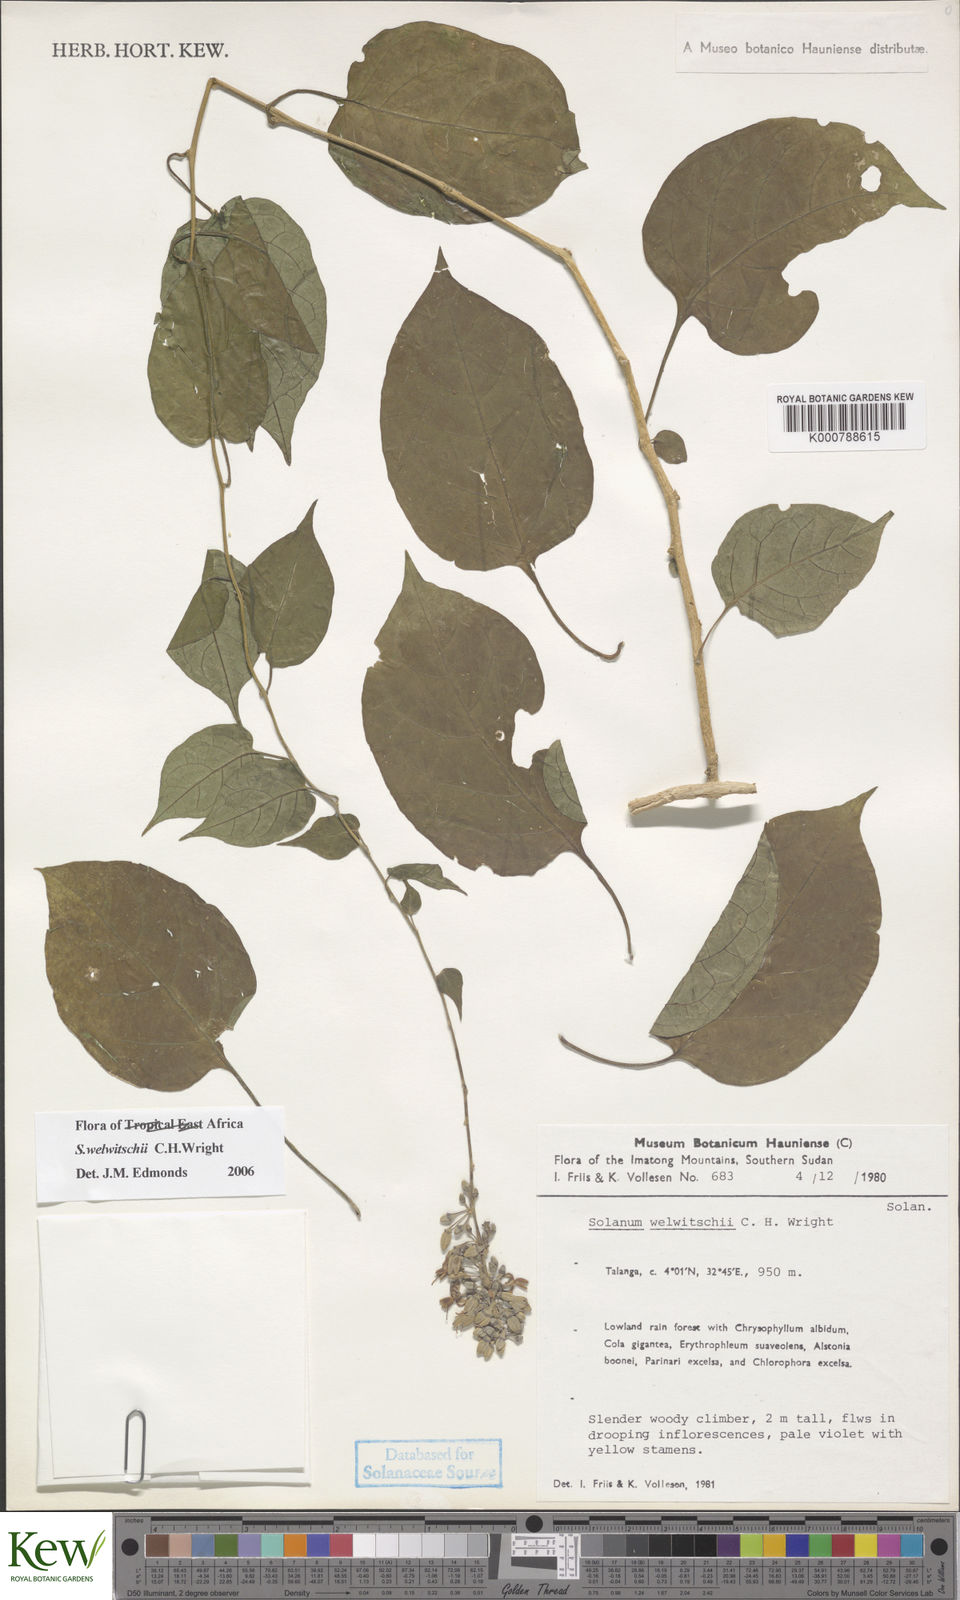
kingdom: Plantae
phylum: Tracheophyta
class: Magnoliopsida
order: Solanales
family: Solanaceae
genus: Solanum
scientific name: Solanum terminale
